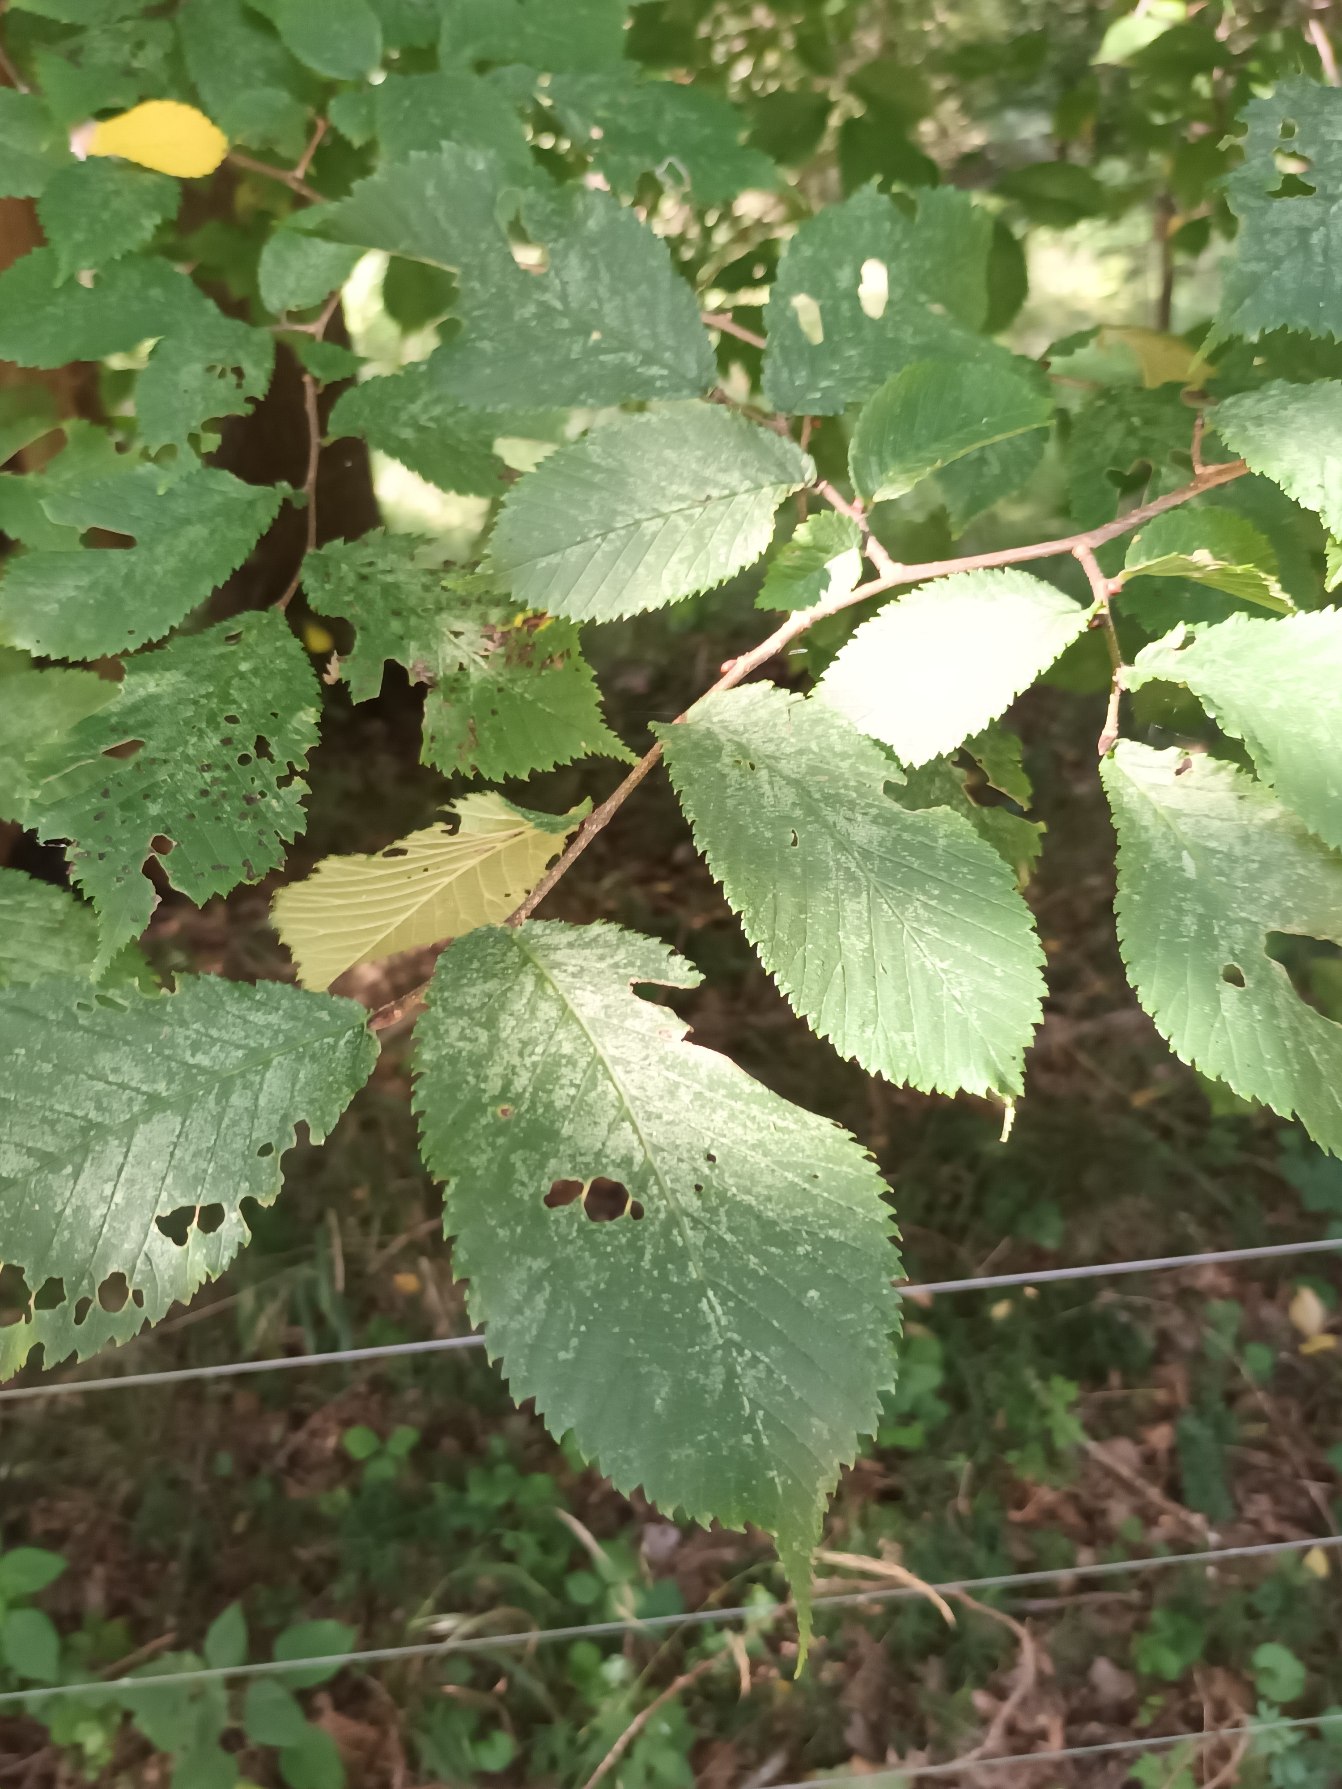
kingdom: Plantae
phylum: Tracheophyta
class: Magnoliopsida
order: Rosales
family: Ulmaceae
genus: Ulmus
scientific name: Ulmus glabra
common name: Skov-elm/storbladet elm
